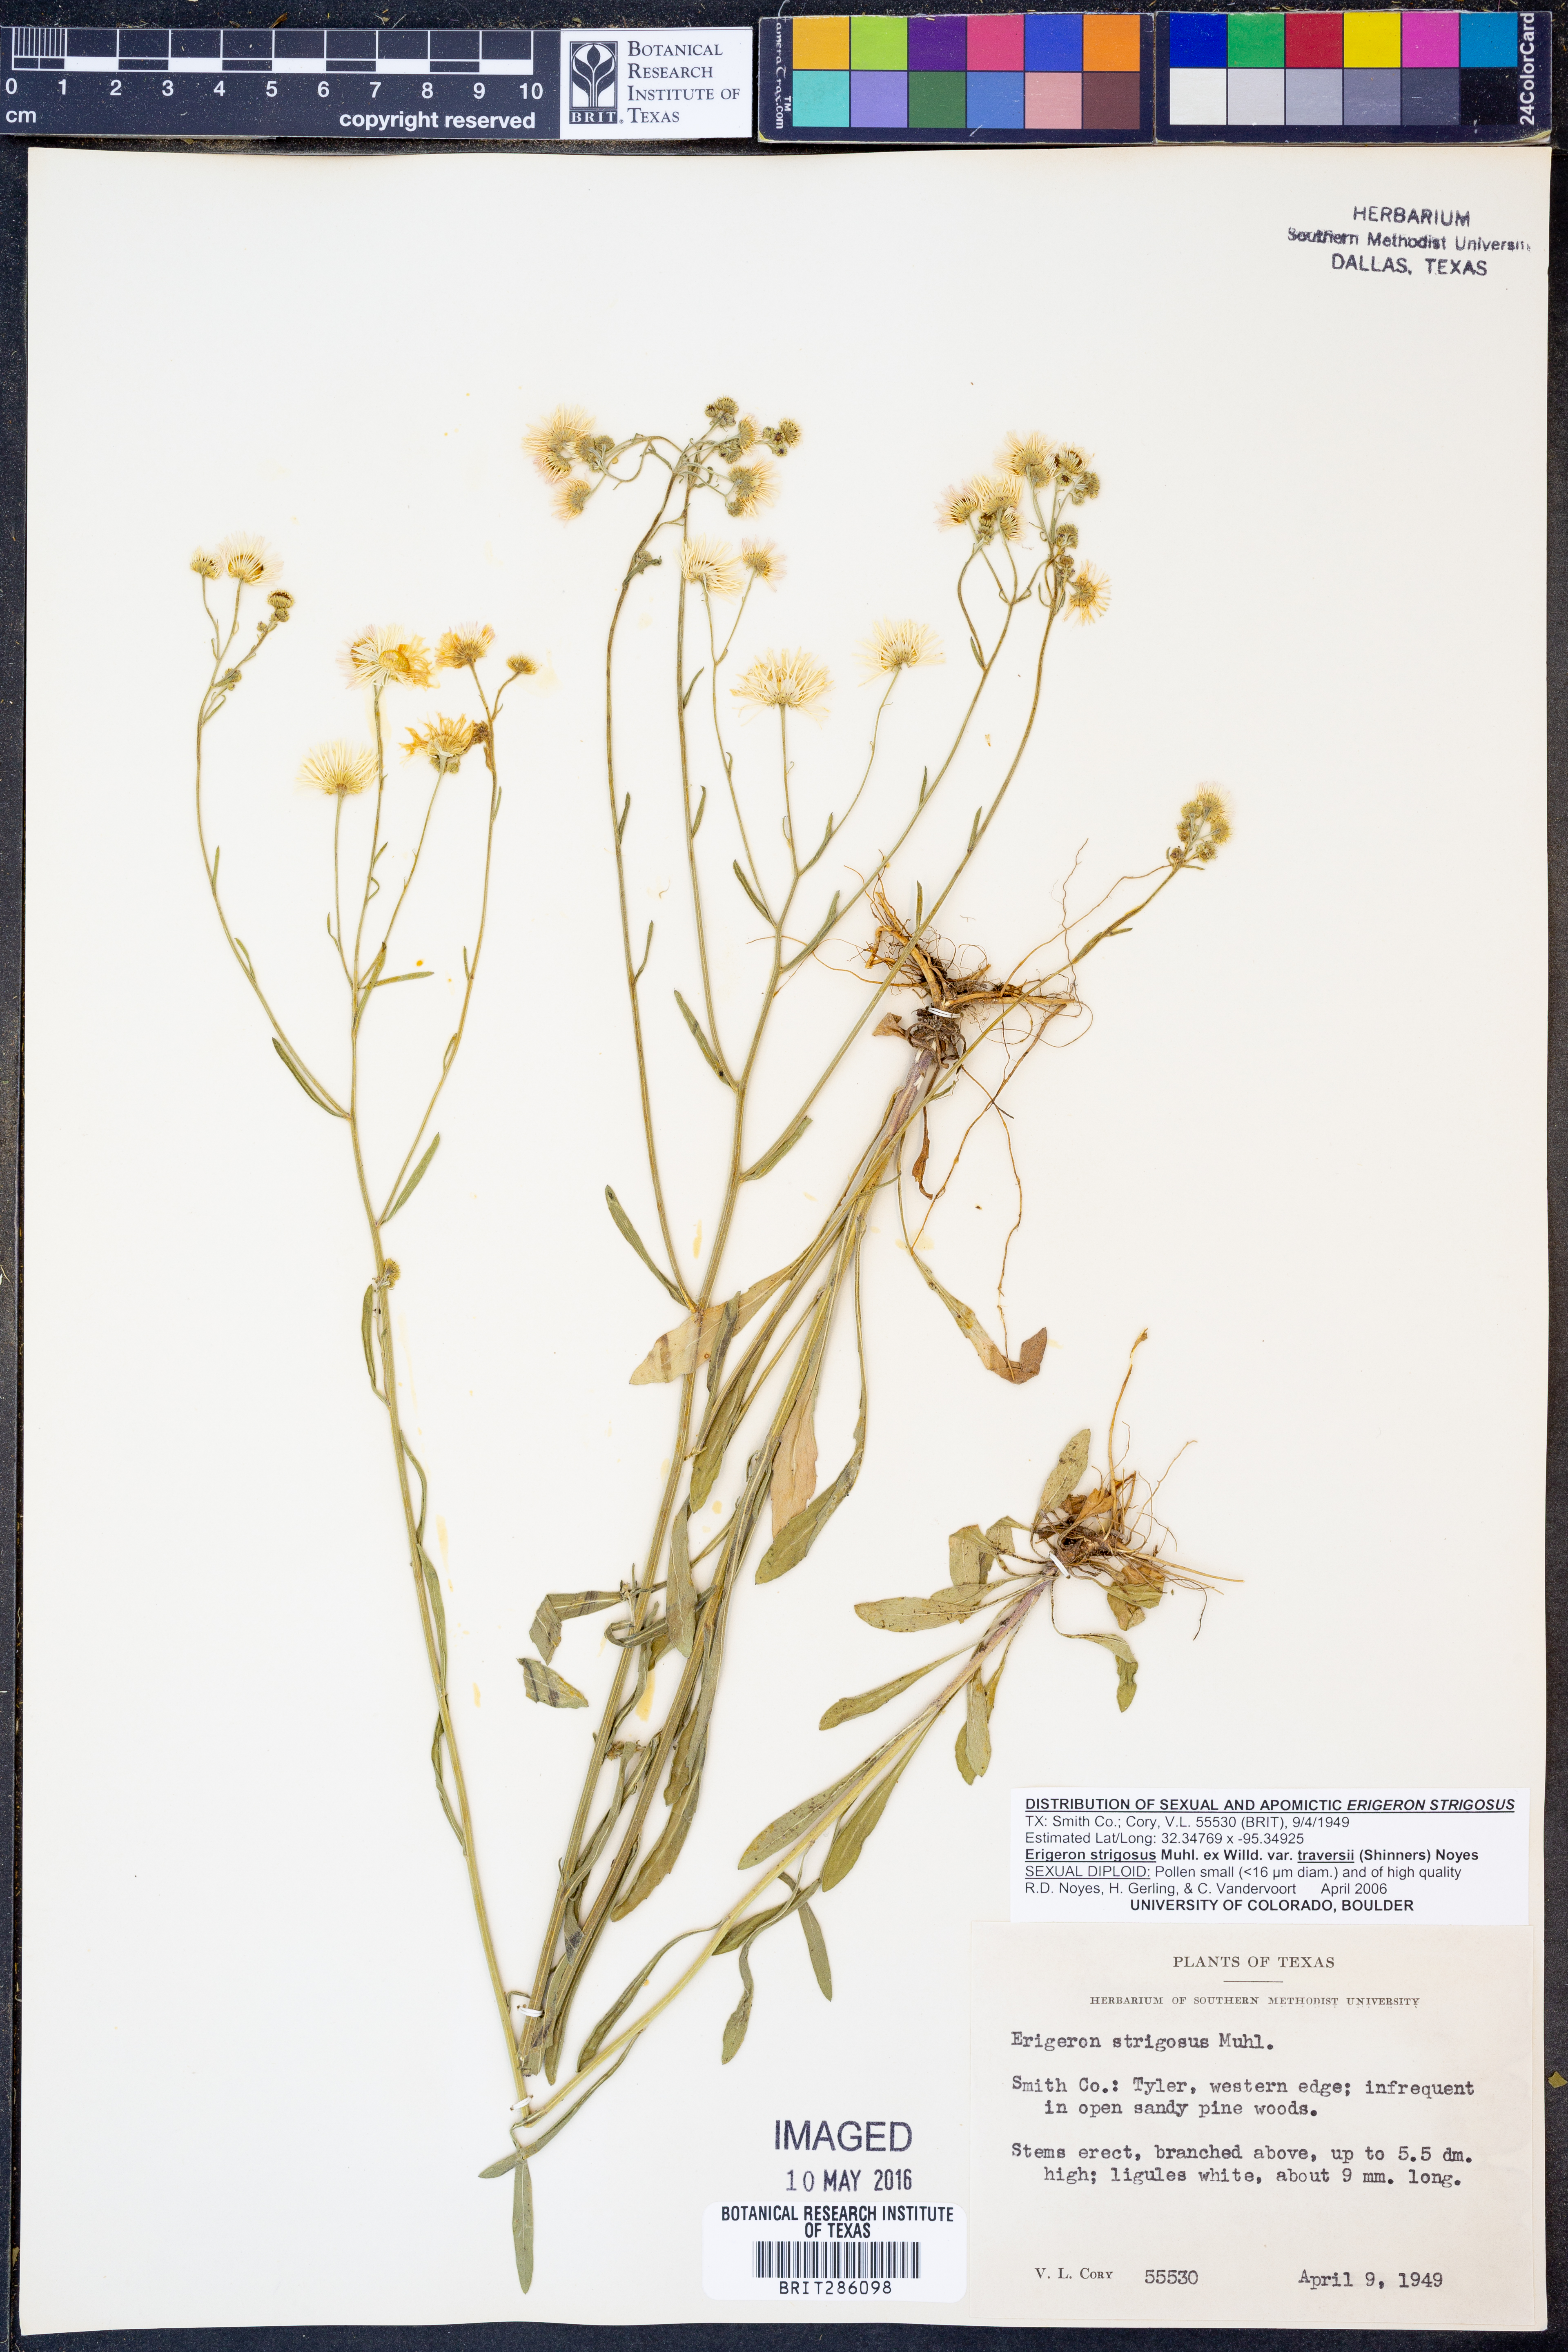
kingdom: Plantae
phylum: Tracheophyta
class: Magnoliopsida
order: Asterales
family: Asteraceae
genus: Erigeron
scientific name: Erigeron strigosus
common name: Common eastern fleabane
